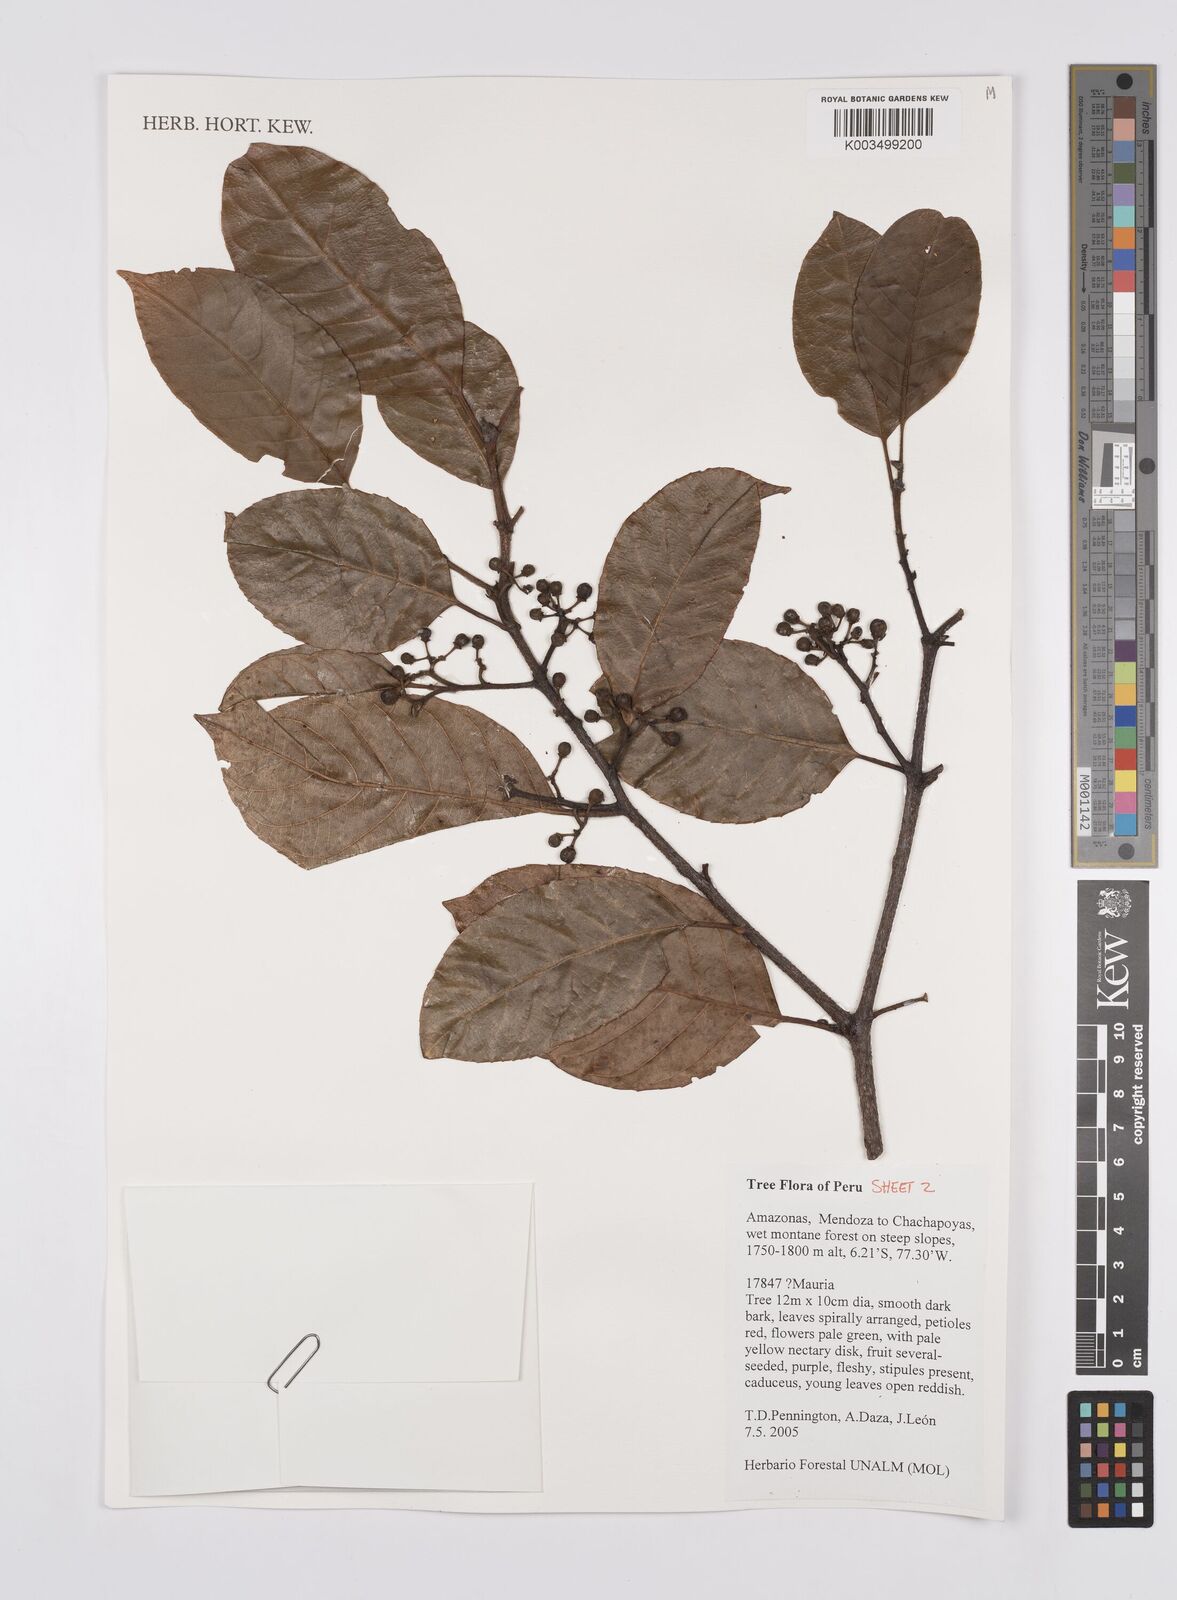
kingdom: Plantae
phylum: Tracheophyta
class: Magnoliopsida
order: Sapindales
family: Anacardiaceae
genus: Mauria
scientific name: Mauria
